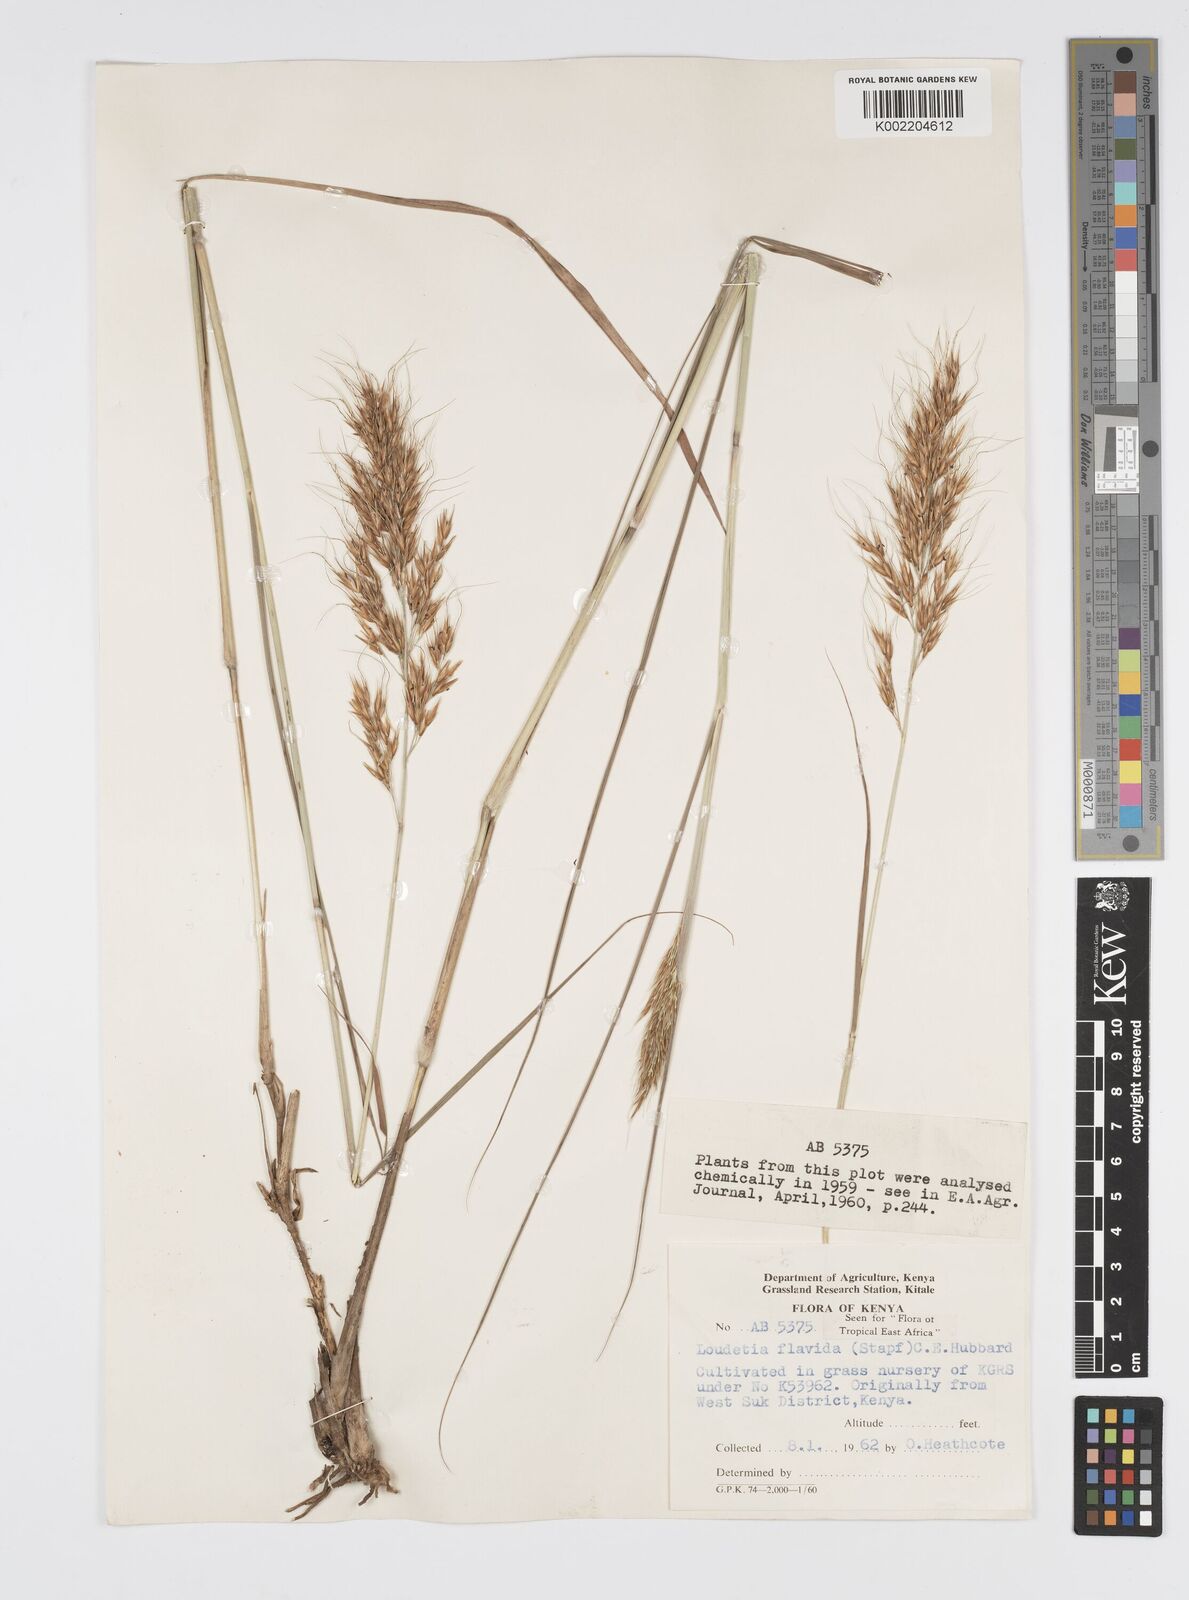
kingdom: Plantae
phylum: Tracheophyta
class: Liliopsida
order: Poales
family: Poaceae
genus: Loudetia
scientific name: Loudetia flavida
